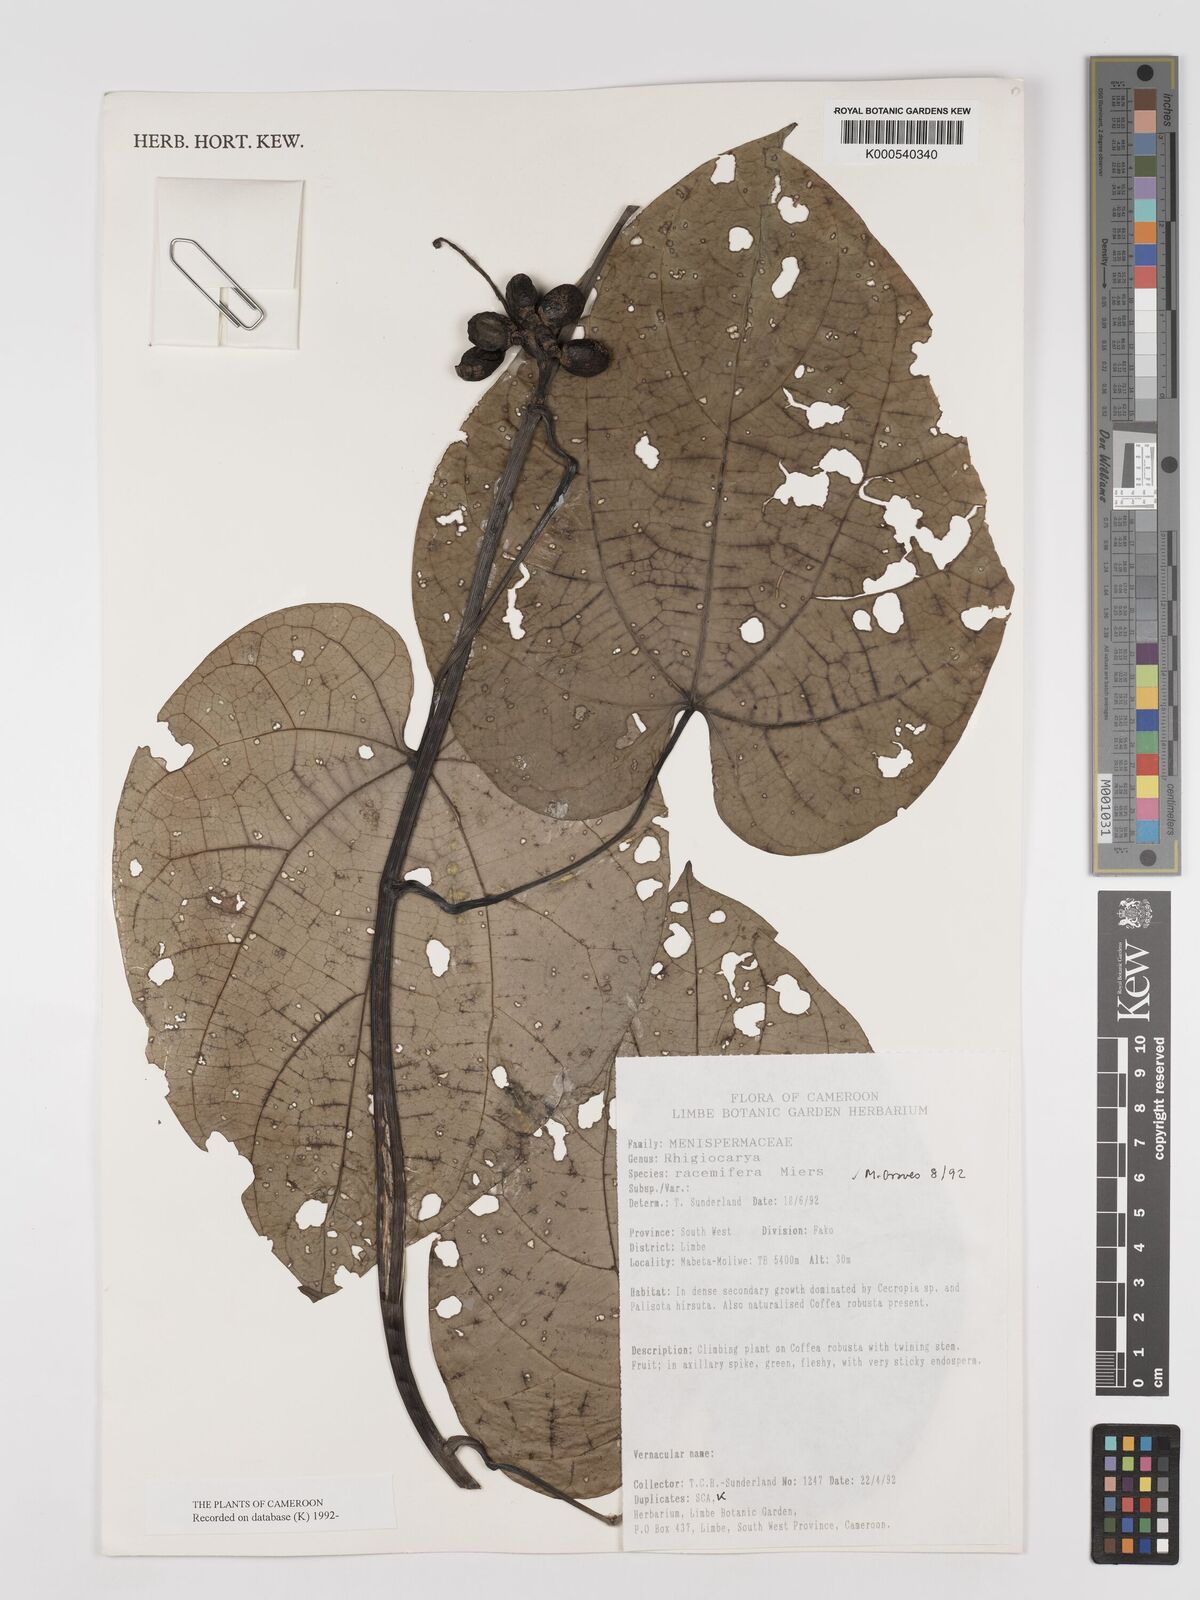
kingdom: Plantae
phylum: Tracheophyta
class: Magnoliopsida
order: Ranunculales
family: Menispermaceae
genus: Rhigiocarya
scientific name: Rhigiocarya racemifera
